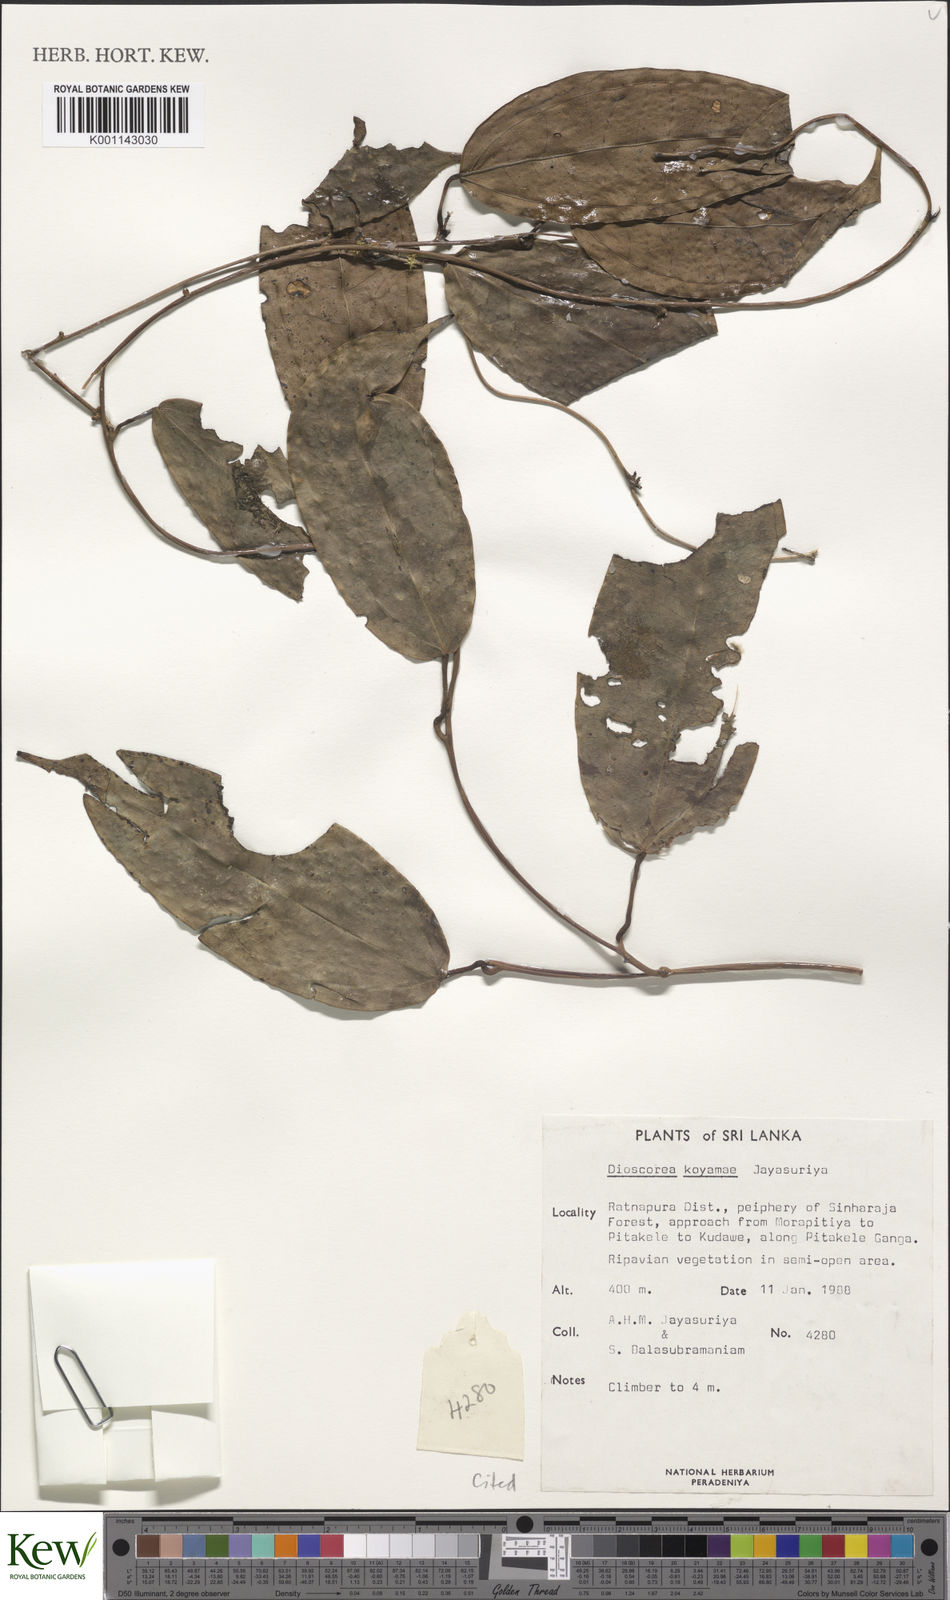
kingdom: Plantae
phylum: Tracheophyta
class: Liliopsida
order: Dioscoreales
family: Dioscoreaceae
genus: Dioscorea
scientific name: Dioscorea koyamae
